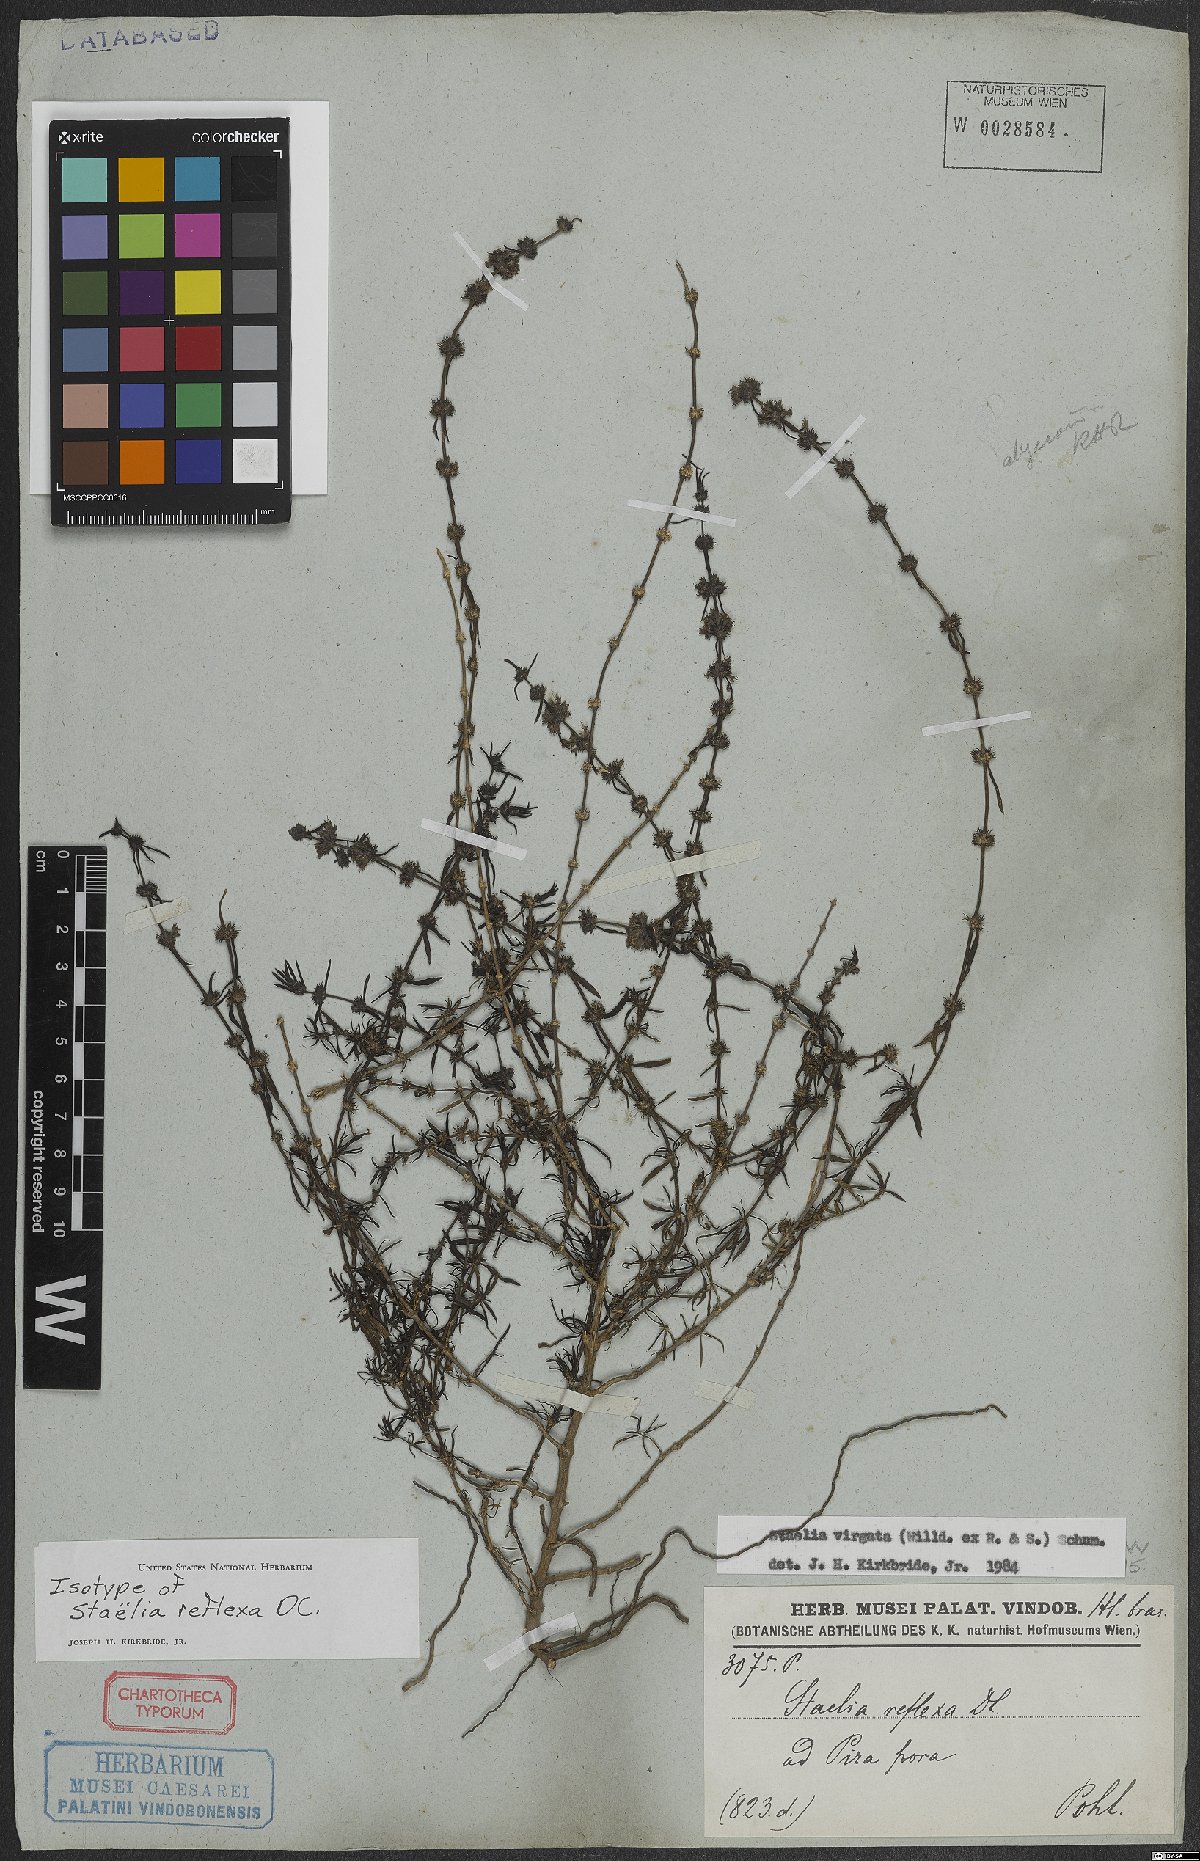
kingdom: Plantae
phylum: Tracheophyta
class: Magnoliopsida
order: Gentianales
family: Rubiaceae
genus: Staelia
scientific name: Staelia virgata
